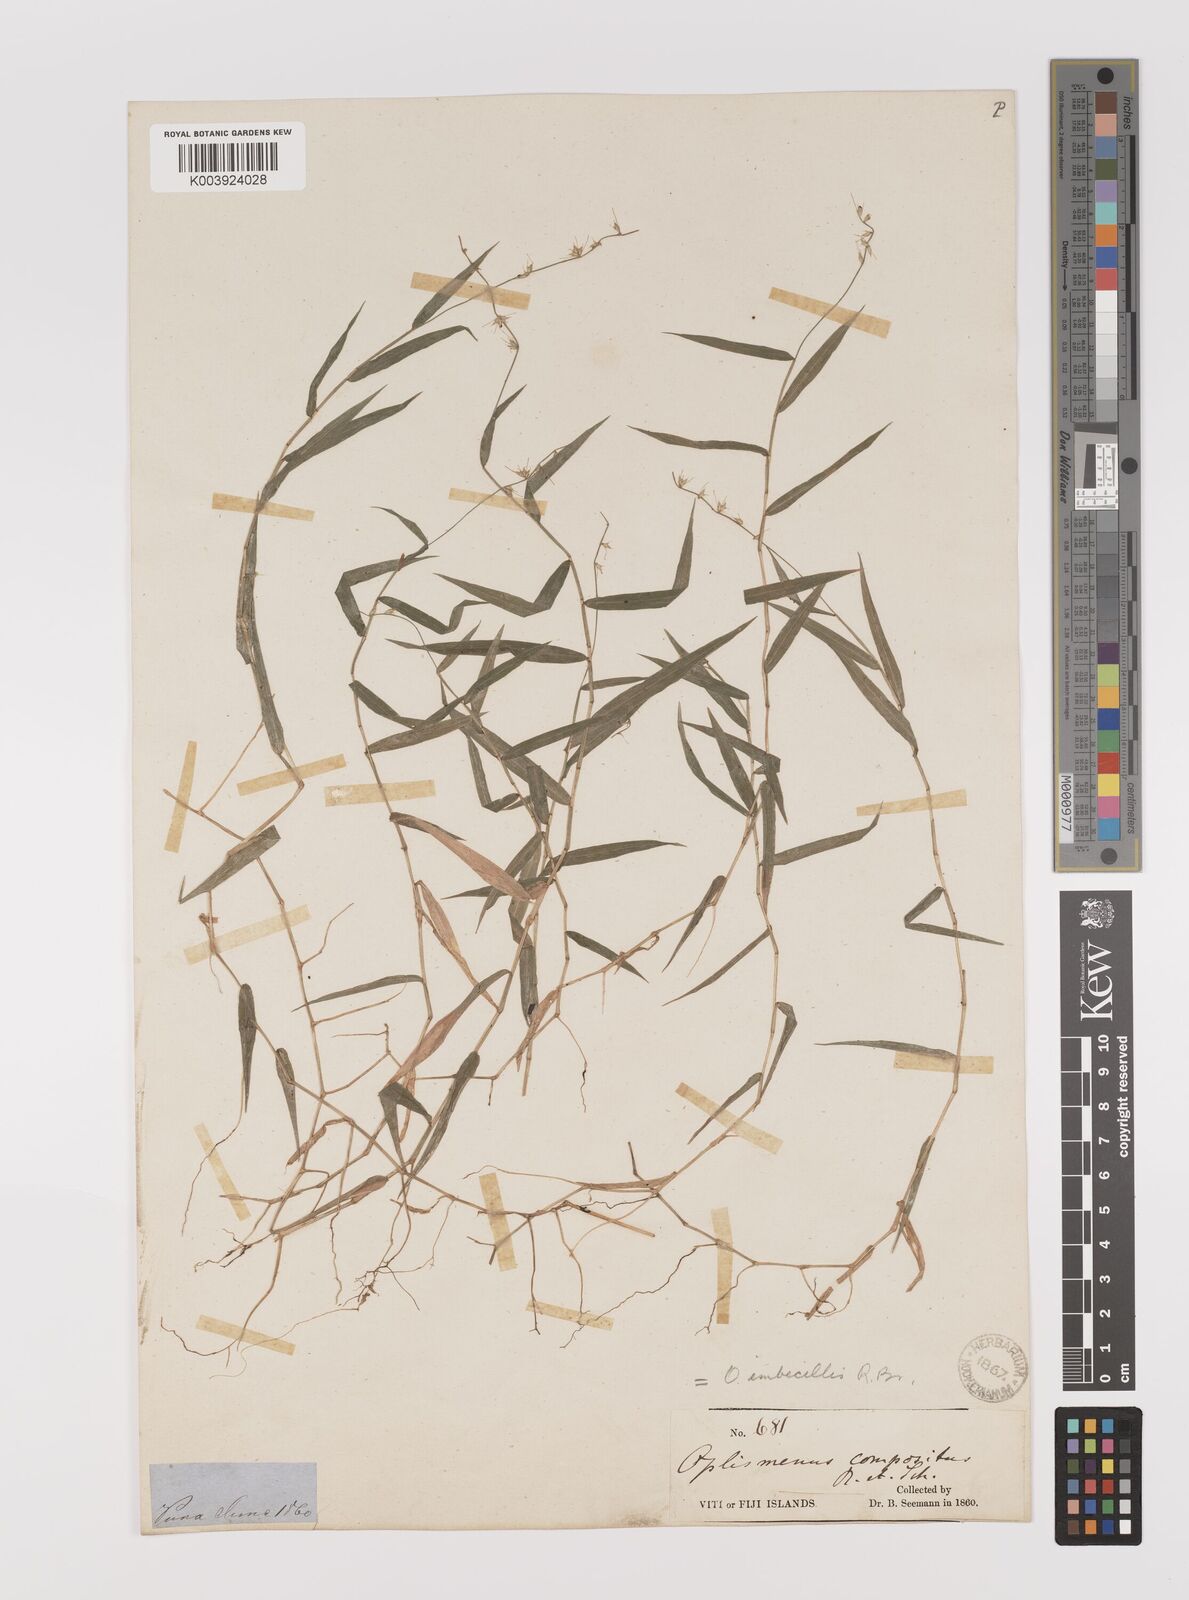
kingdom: Plantae
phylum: Tracheophyta
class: Liliopsida
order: Poales
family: Poaceae
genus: Oplismenus
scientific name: Oplismenus hirtellus
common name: Basketgrass
